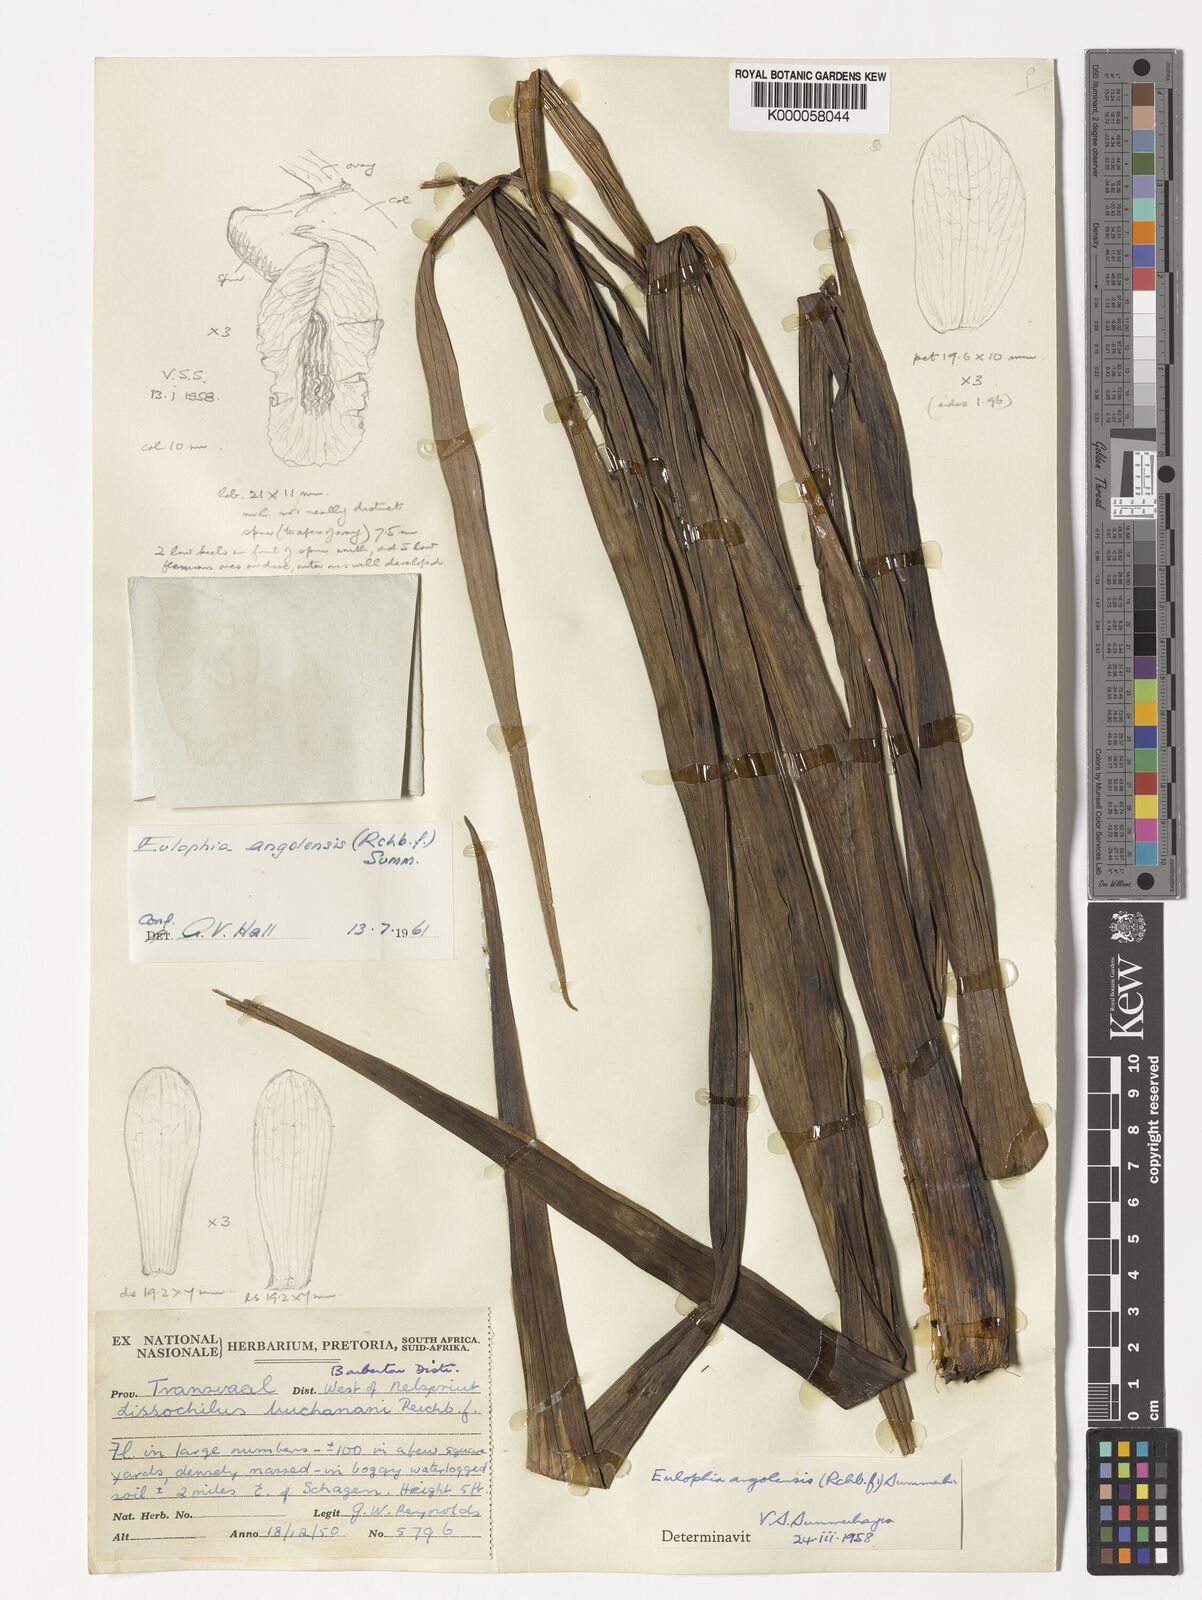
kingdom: Plantae
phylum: Tracheophyta
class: Liliopsida
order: Asparagales
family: Orchidaceae
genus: Eulophia
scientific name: Eulophia angolensis
